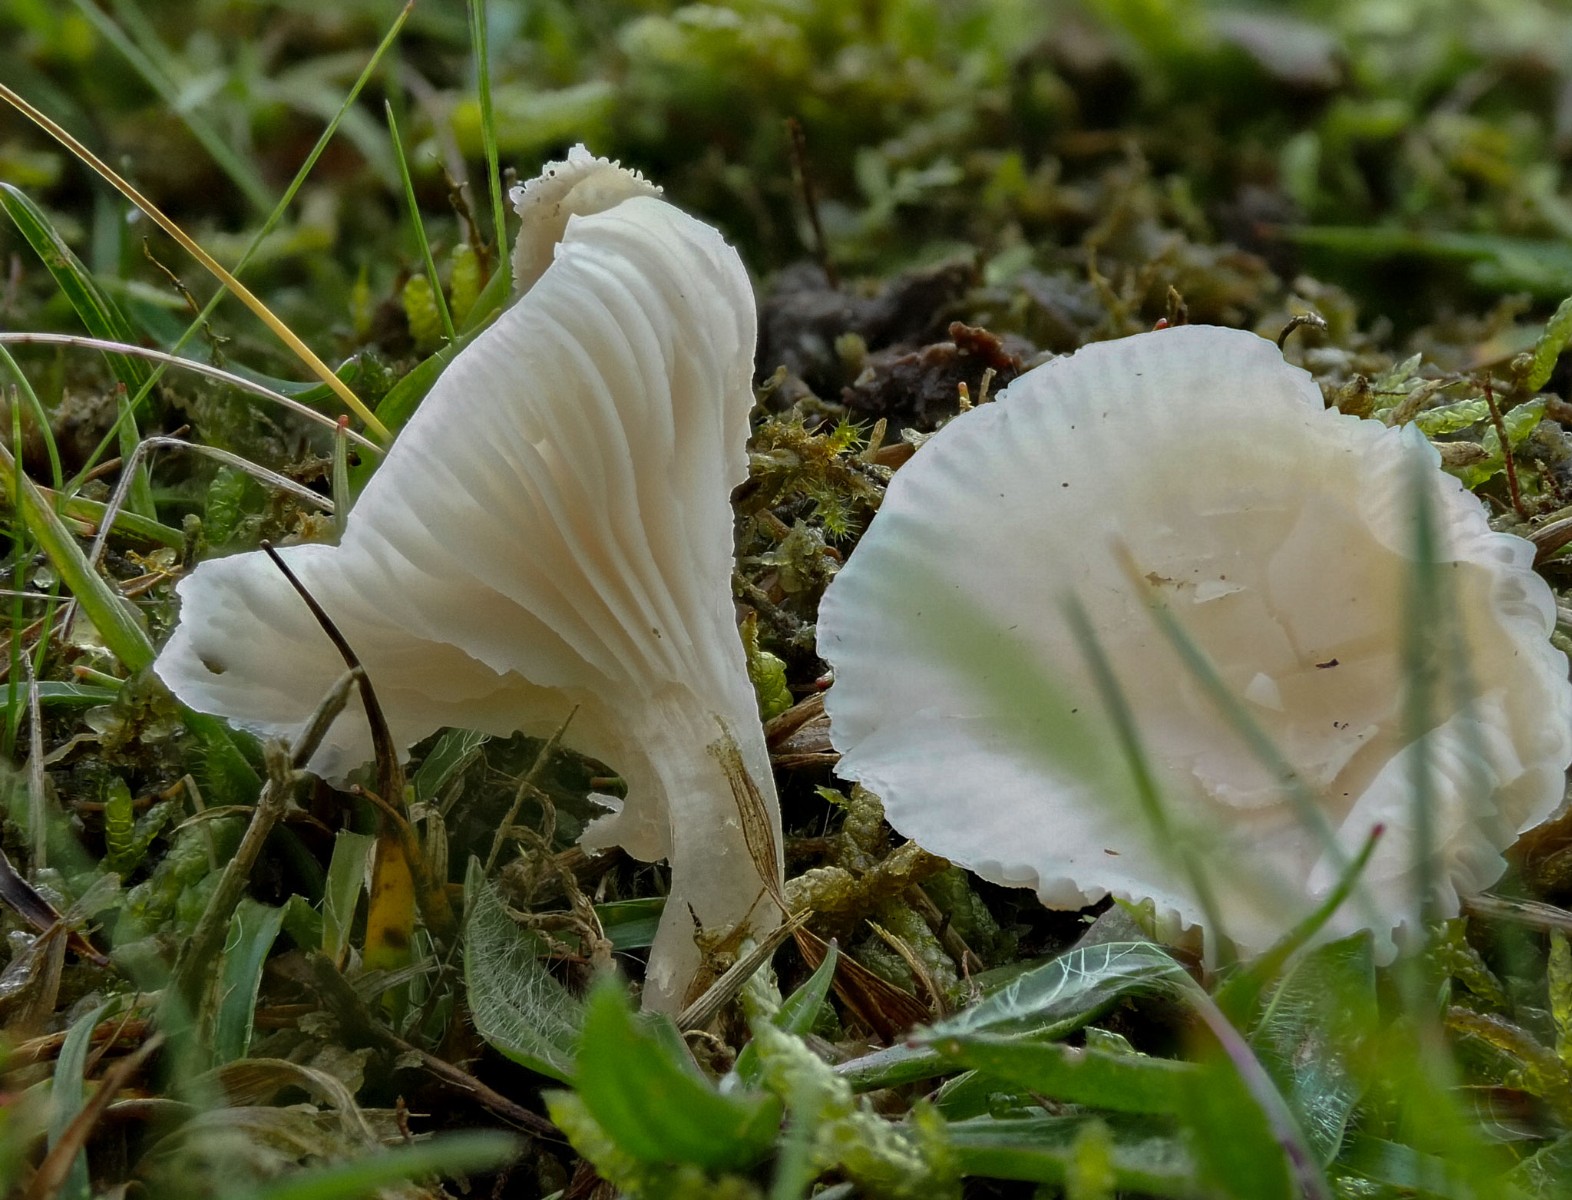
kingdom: Fungi
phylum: Basidiomycota
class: Agaricomycetes
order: Agaricales
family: Hygrophoraceae
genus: Cuphophyllus
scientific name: Cuphophyllus russocoriaceus
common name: ruslæder-vokshat
